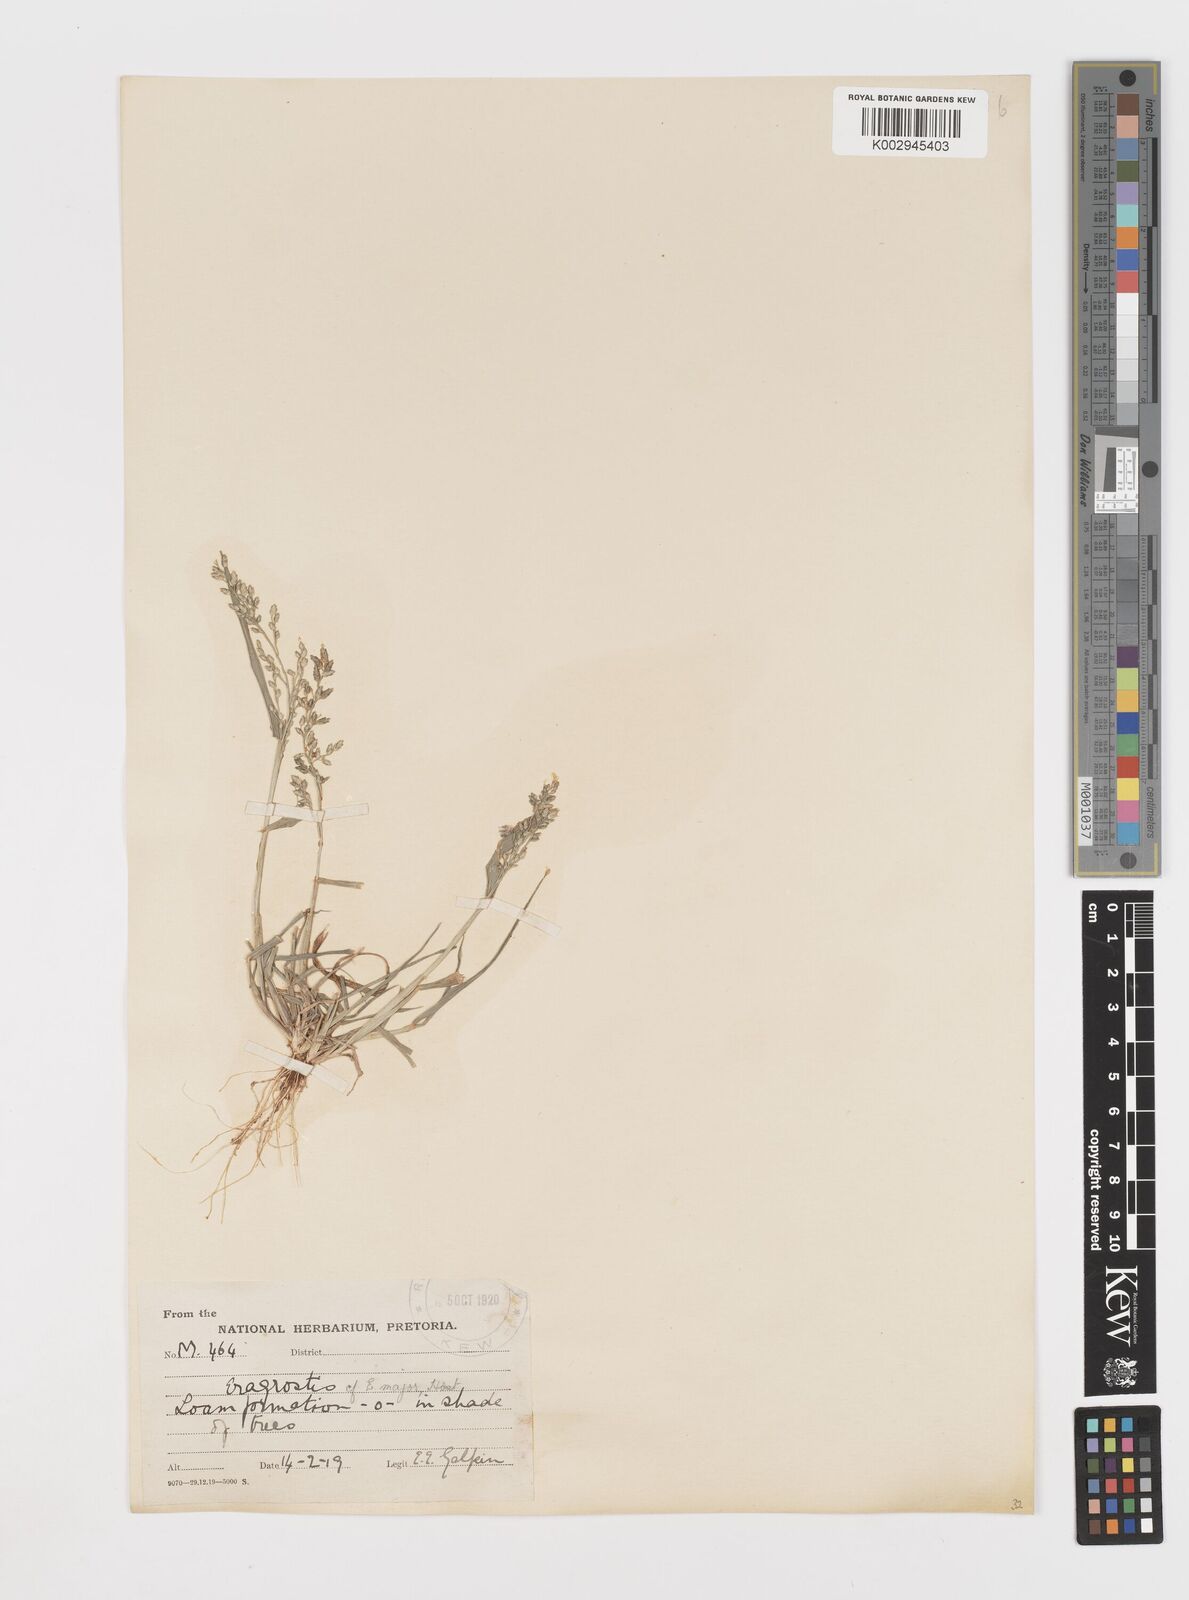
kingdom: Plantae
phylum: Tracheophyta
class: Liliopsida
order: Poales
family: Poaceae
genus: Eragrostis
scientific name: Eragrostis cilianensis
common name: Stinkgrass
